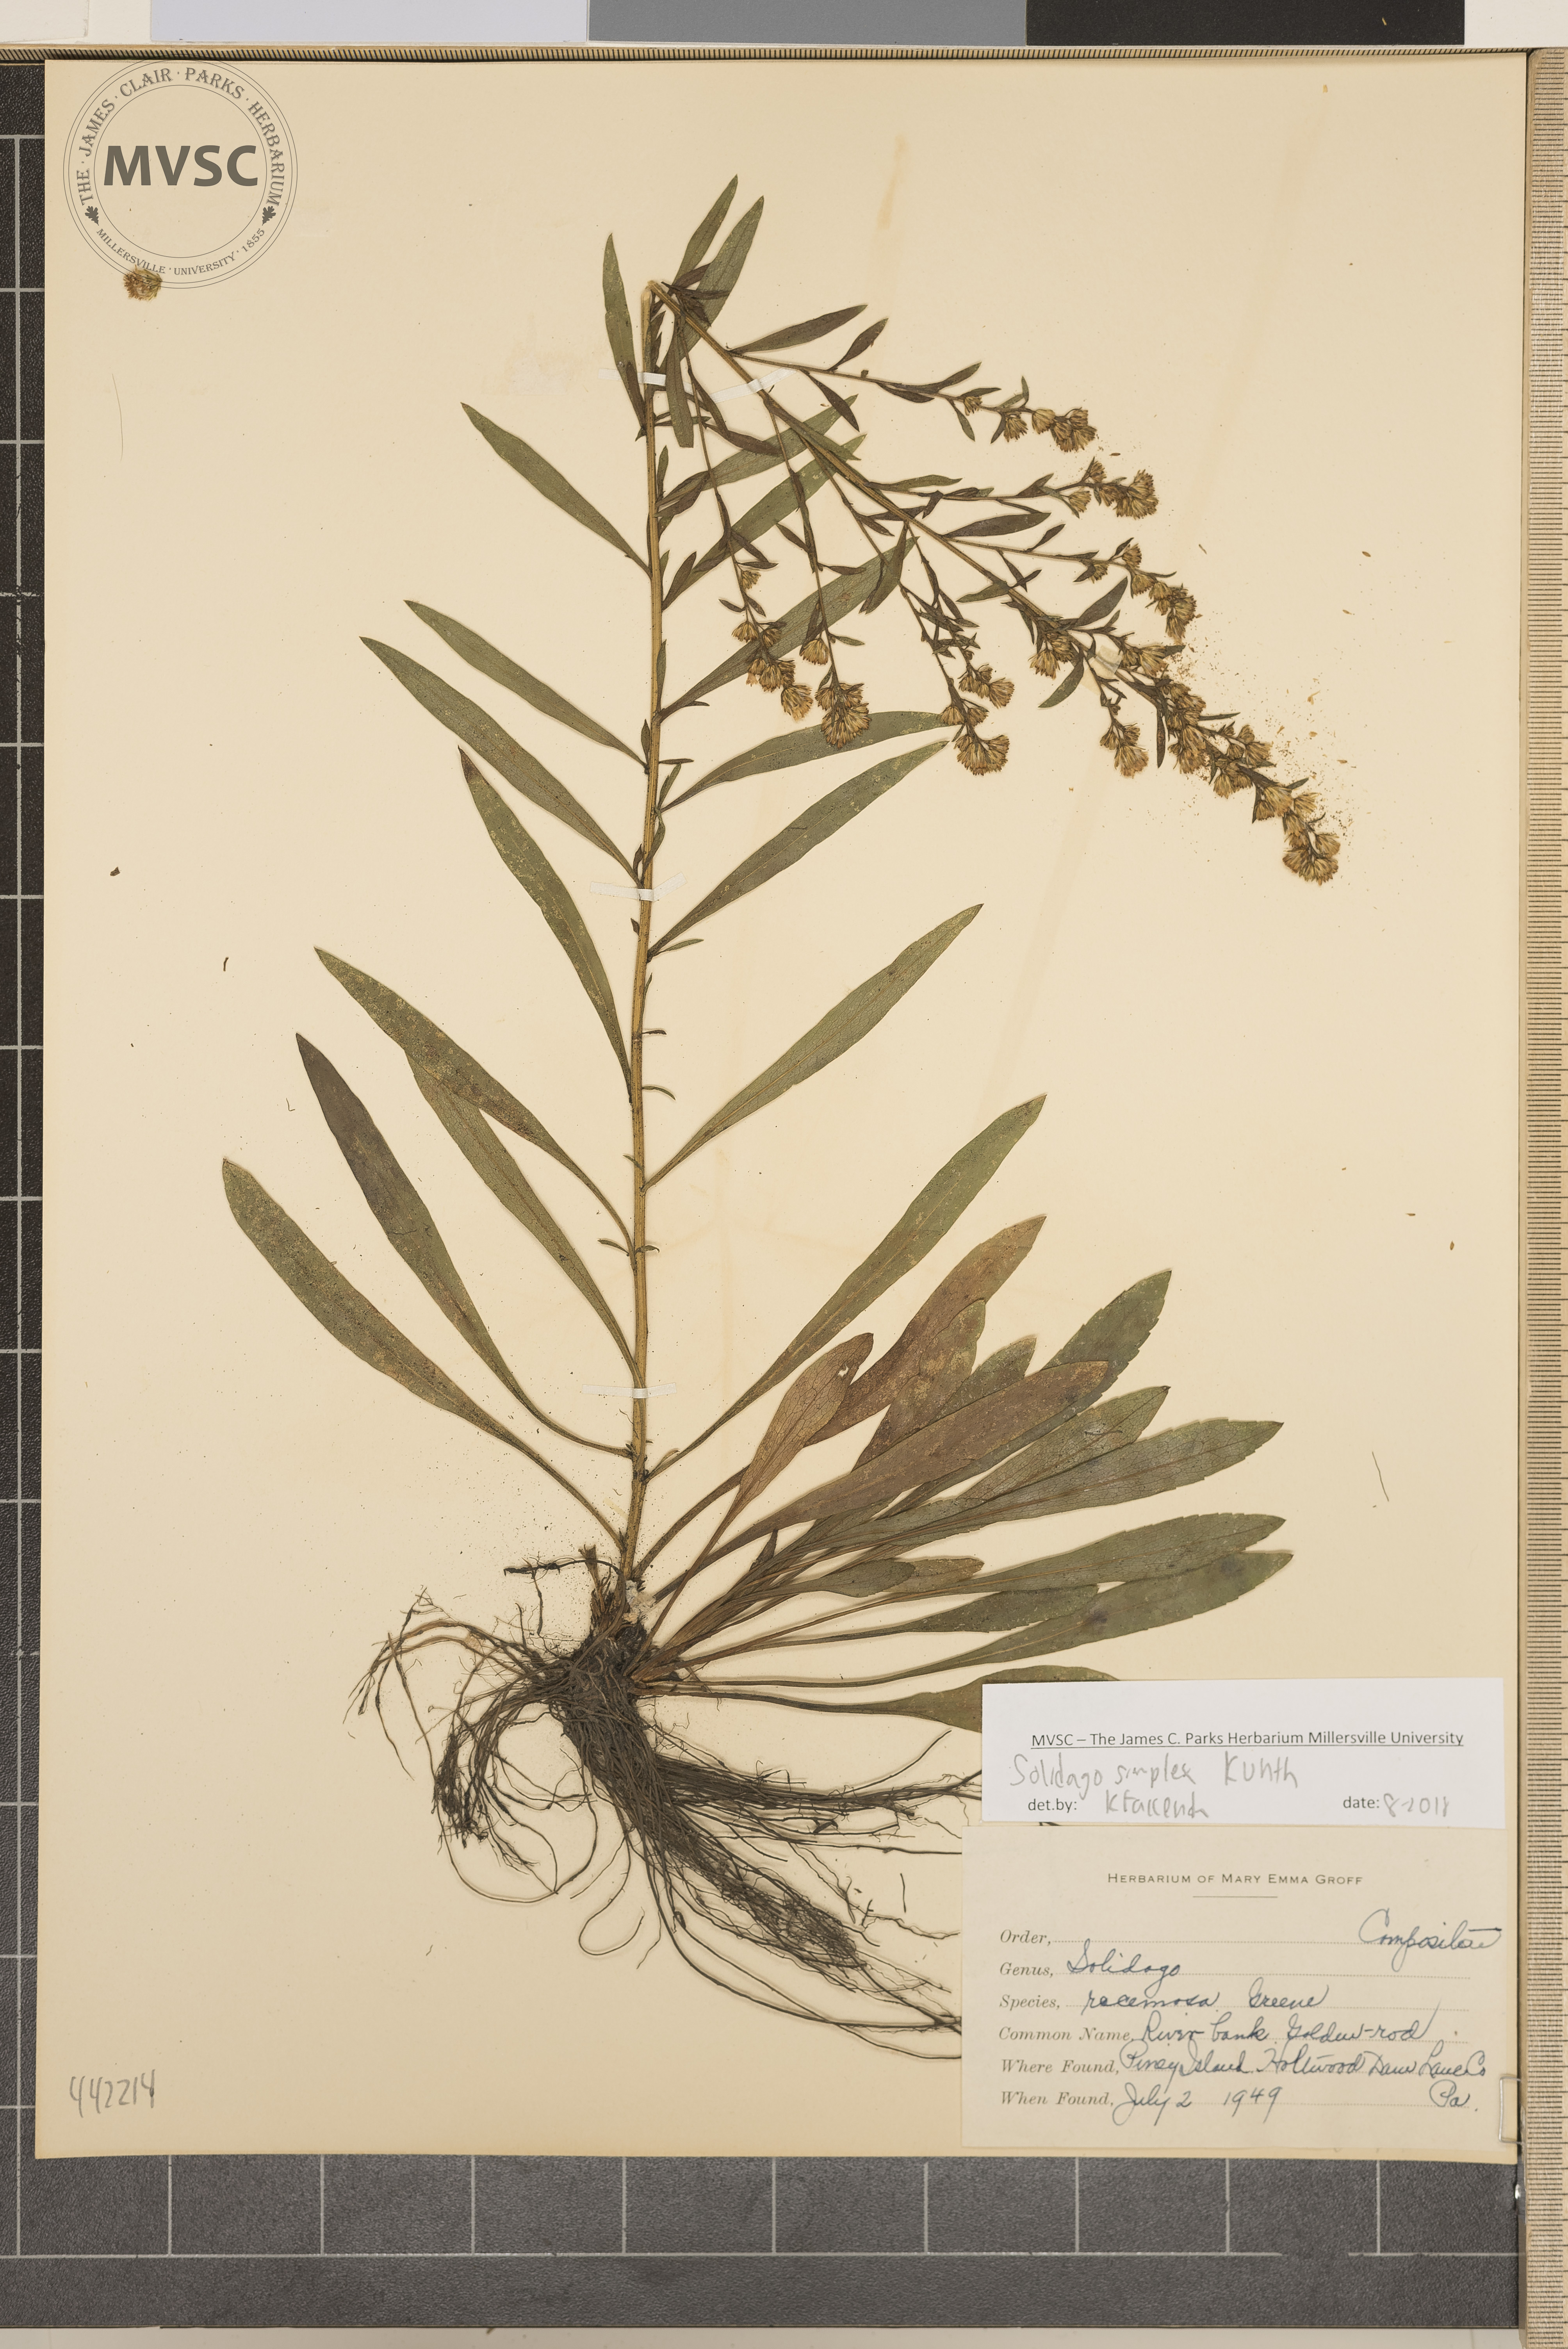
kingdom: Plantae
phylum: Tracheophyta
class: Magnoliopsida
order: Asterales
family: Asteraceae
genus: Solidago
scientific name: Solidago simplex
